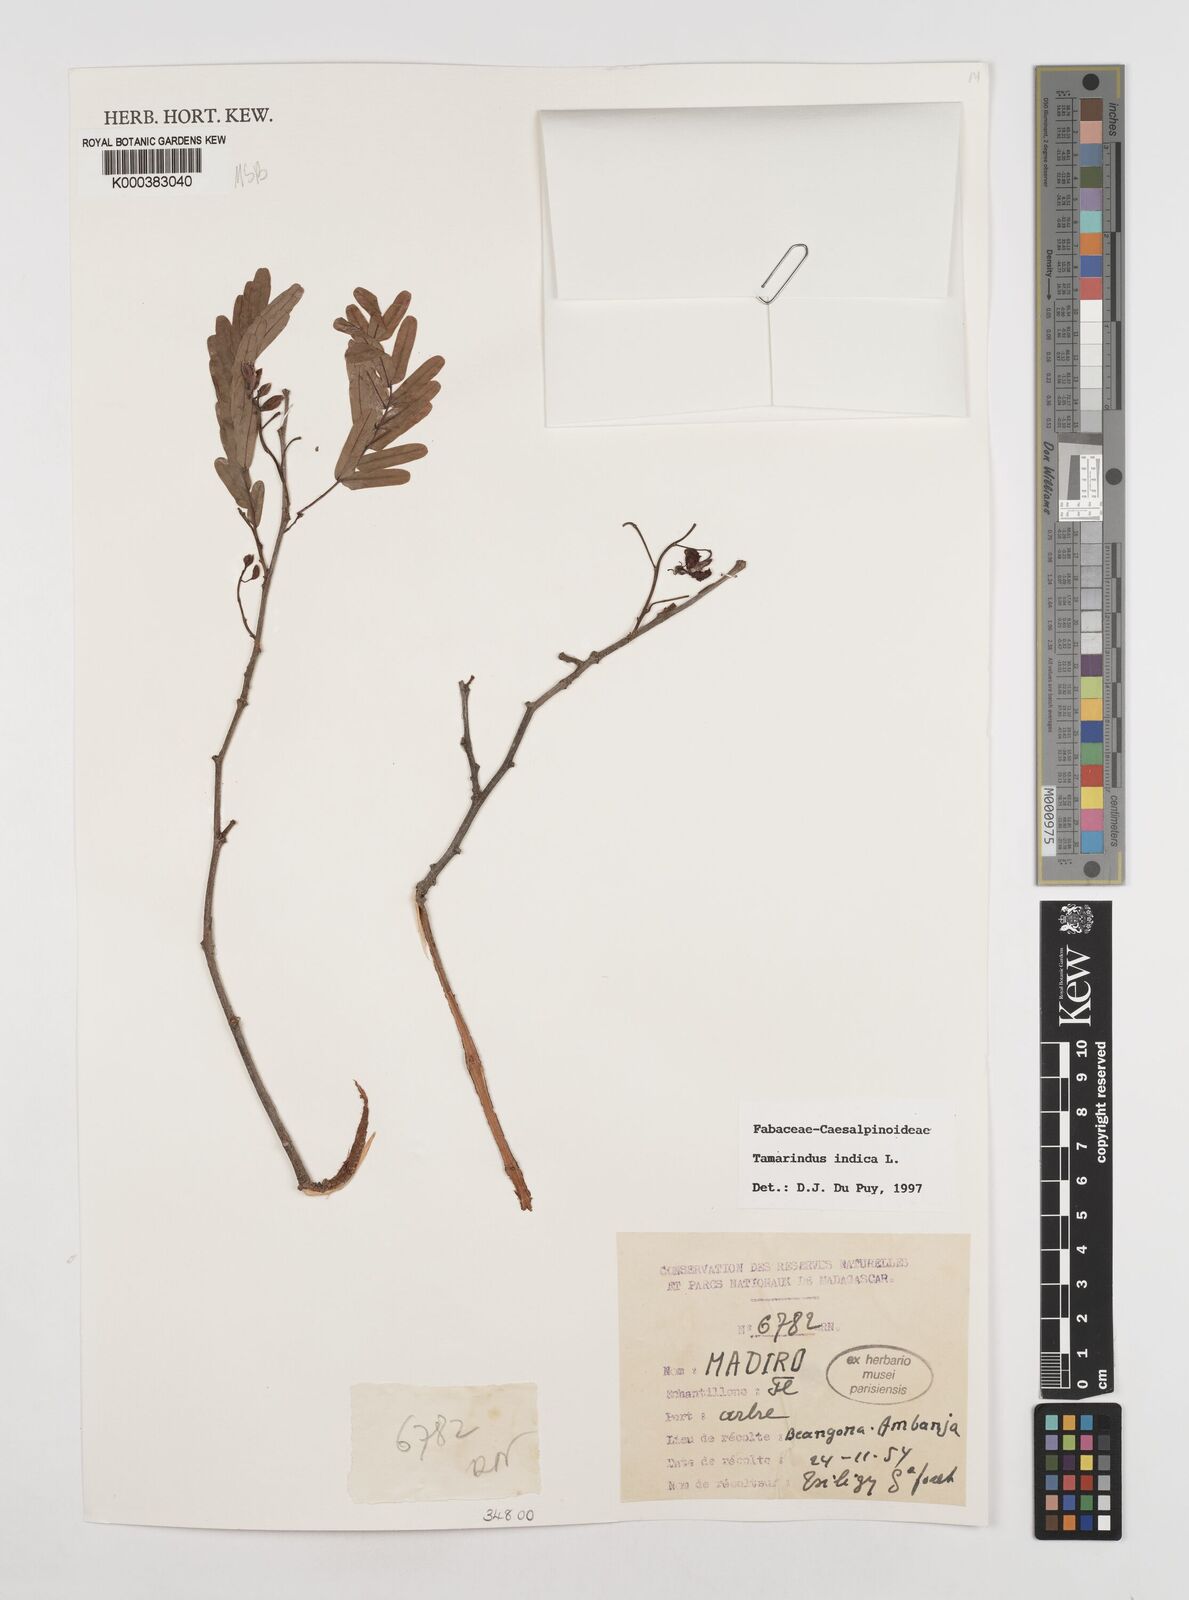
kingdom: Plantae
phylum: Tracheophyta
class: Magnoliopsida
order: Fabales
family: Fabaceae
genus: Tamarindus
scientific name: Tamarindus indica
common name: Tamarind
